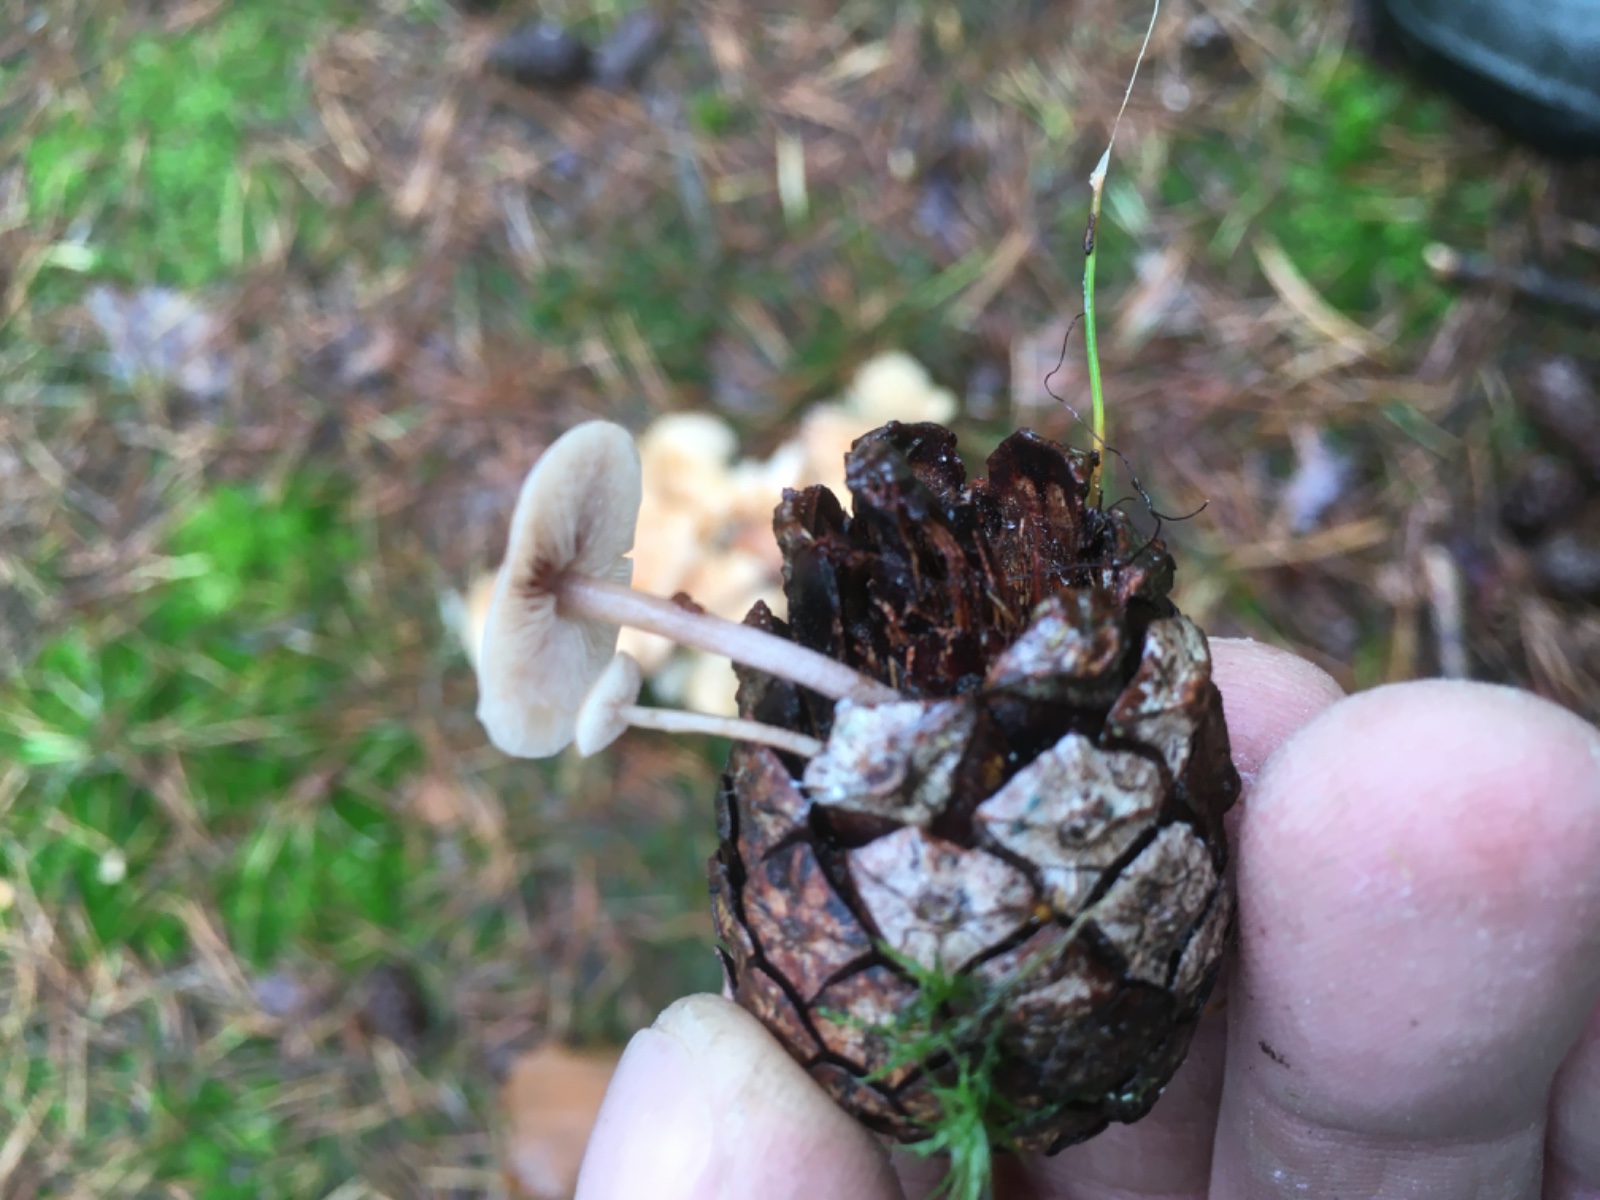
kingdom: Fungi
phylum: Basidiomycota
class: Agaricomycetes
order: Agaricales
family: Marasmiaceae
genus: Baeospora
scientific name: Baeospora myosura
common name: koglebruskhat
